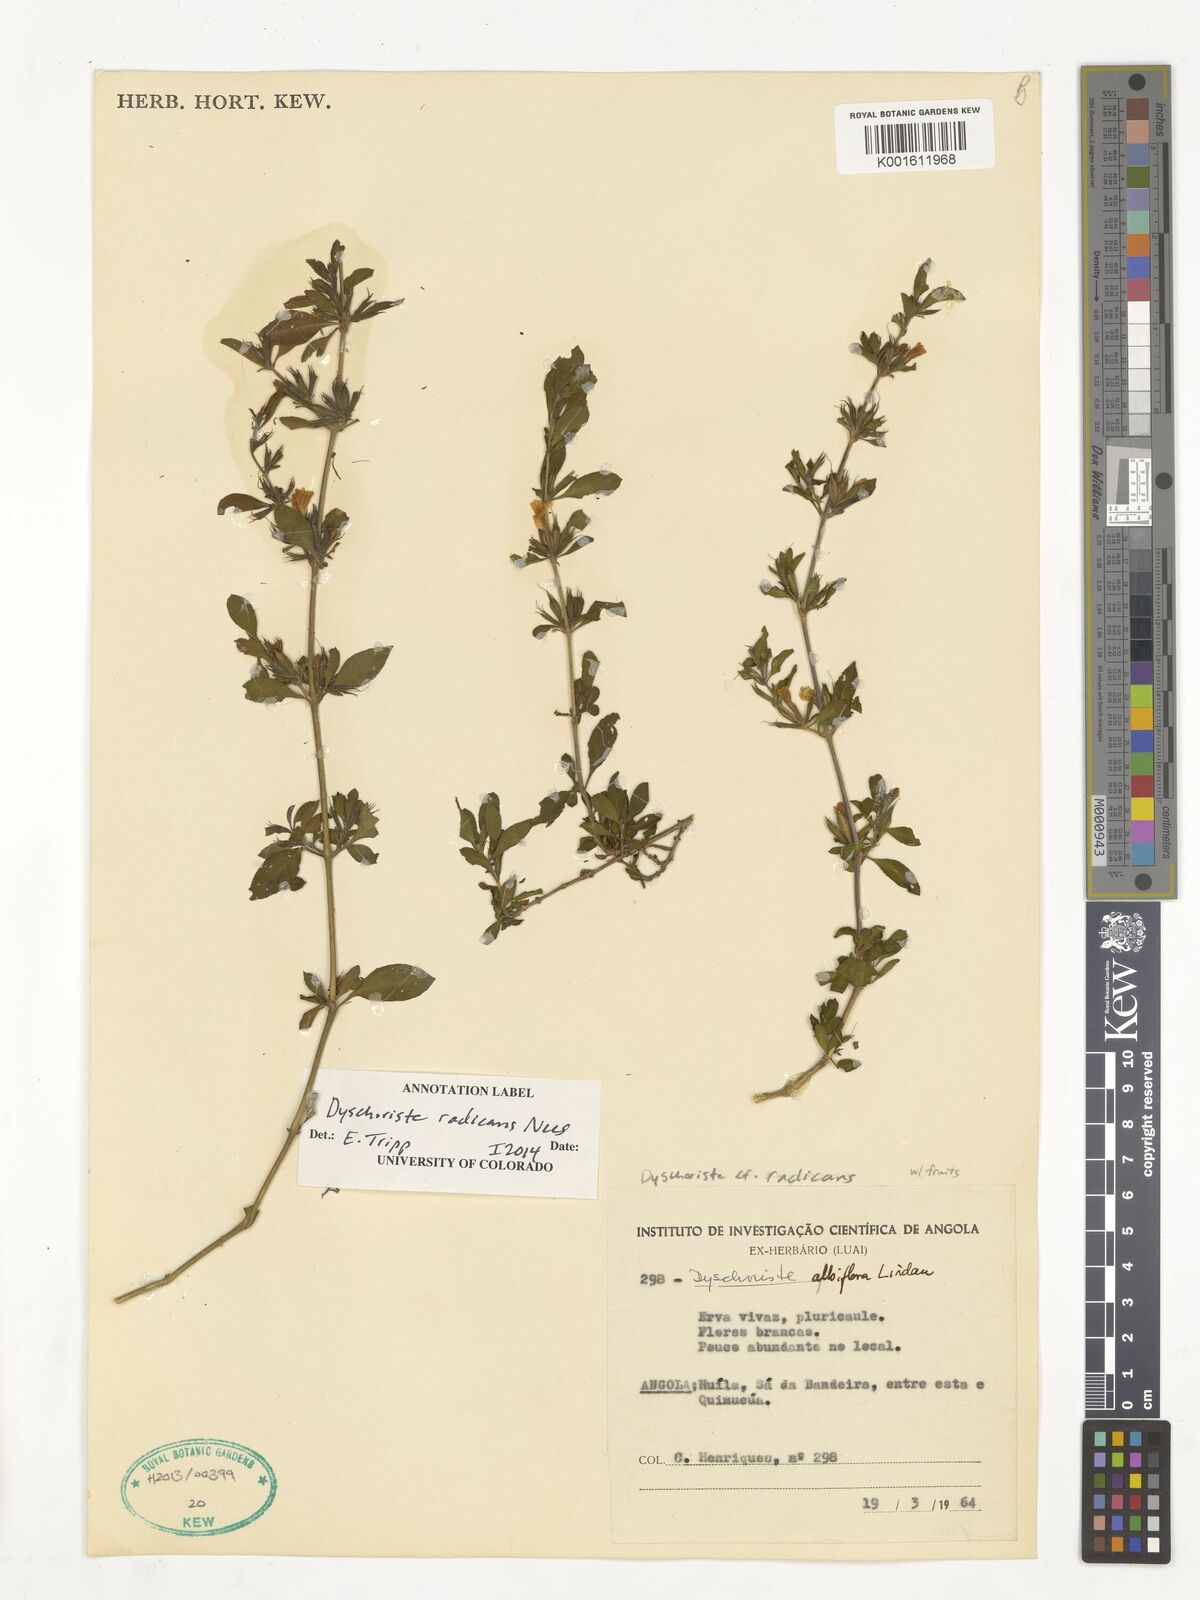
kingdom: Plantae
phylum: Tracheophyta
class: Magnoliopsida
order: Lamiales
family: Acanthaceae
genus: Dyschoriste
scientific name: Dyschoriste radicans
